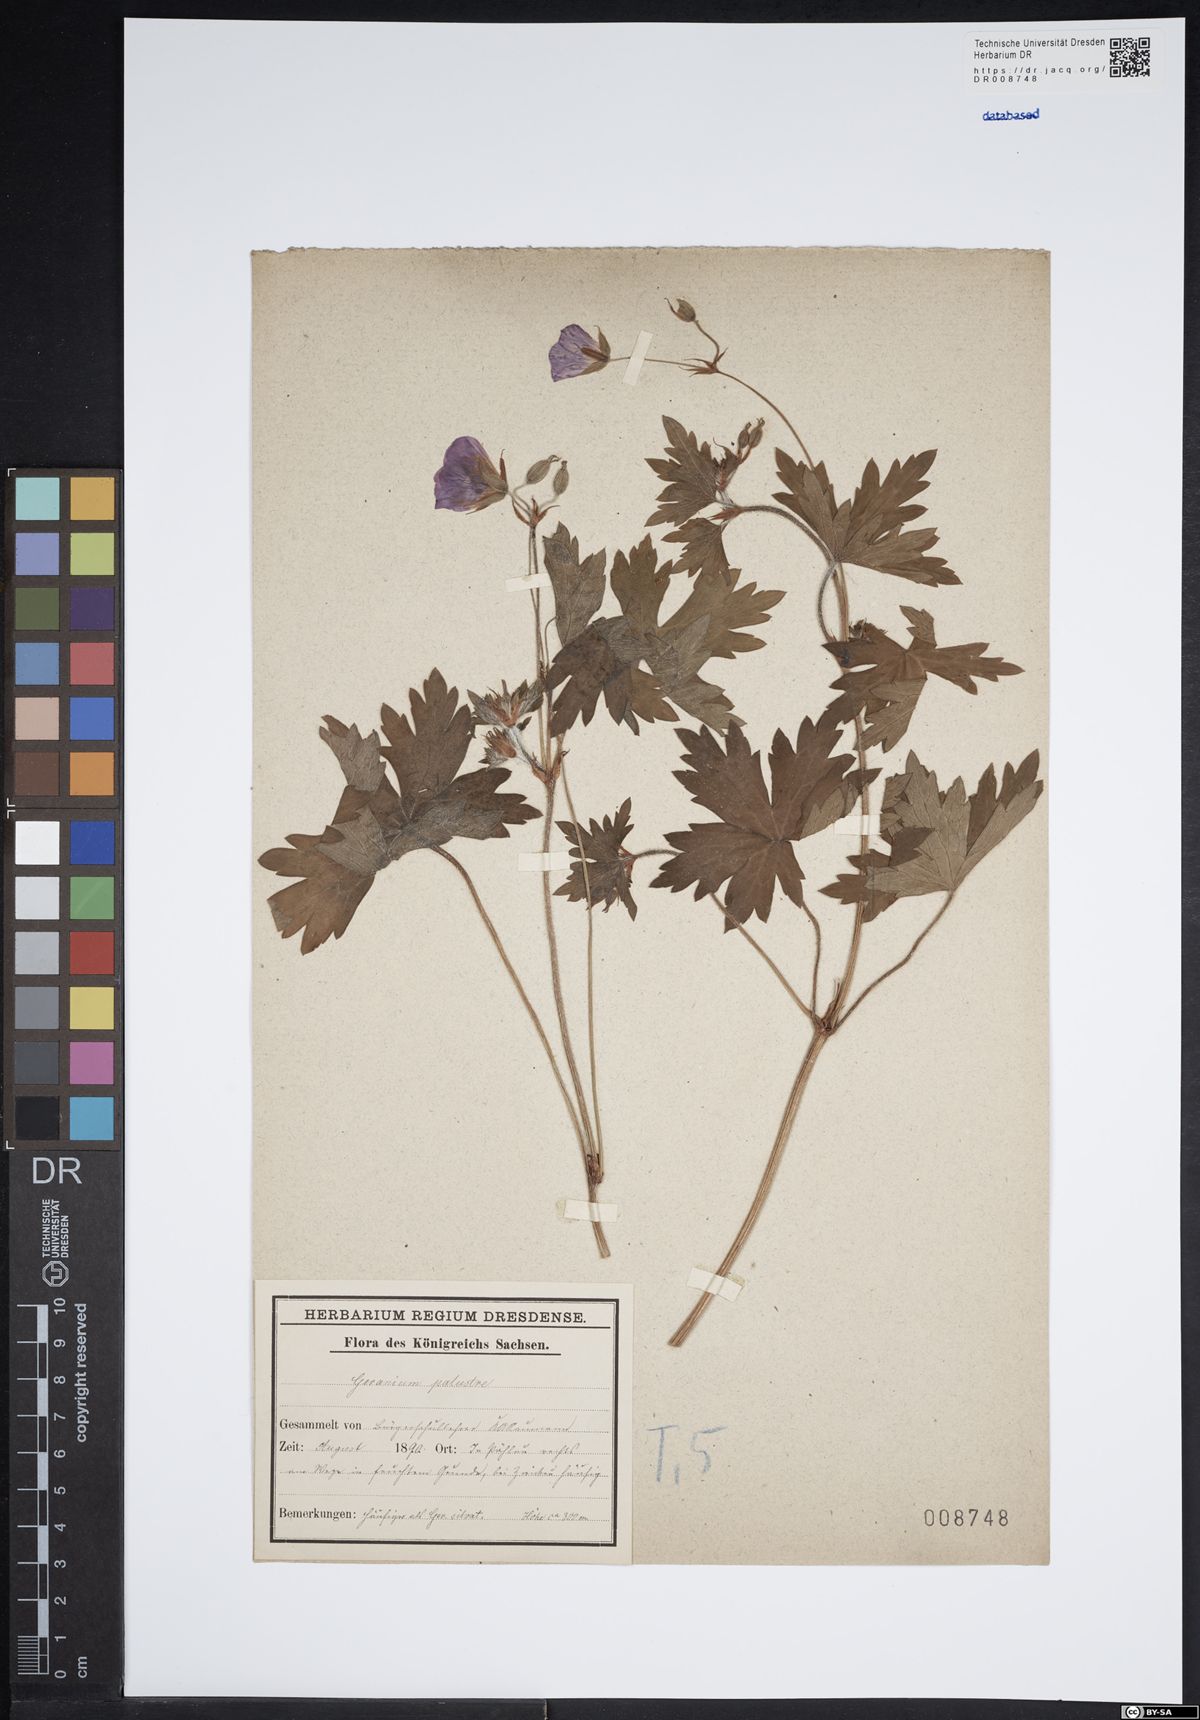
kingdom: Plantae
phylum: Tracheophyta
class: Magnoliopsida
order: Geraniales
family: Geraniaceae
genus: Geranium
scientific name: Geranium palustre
